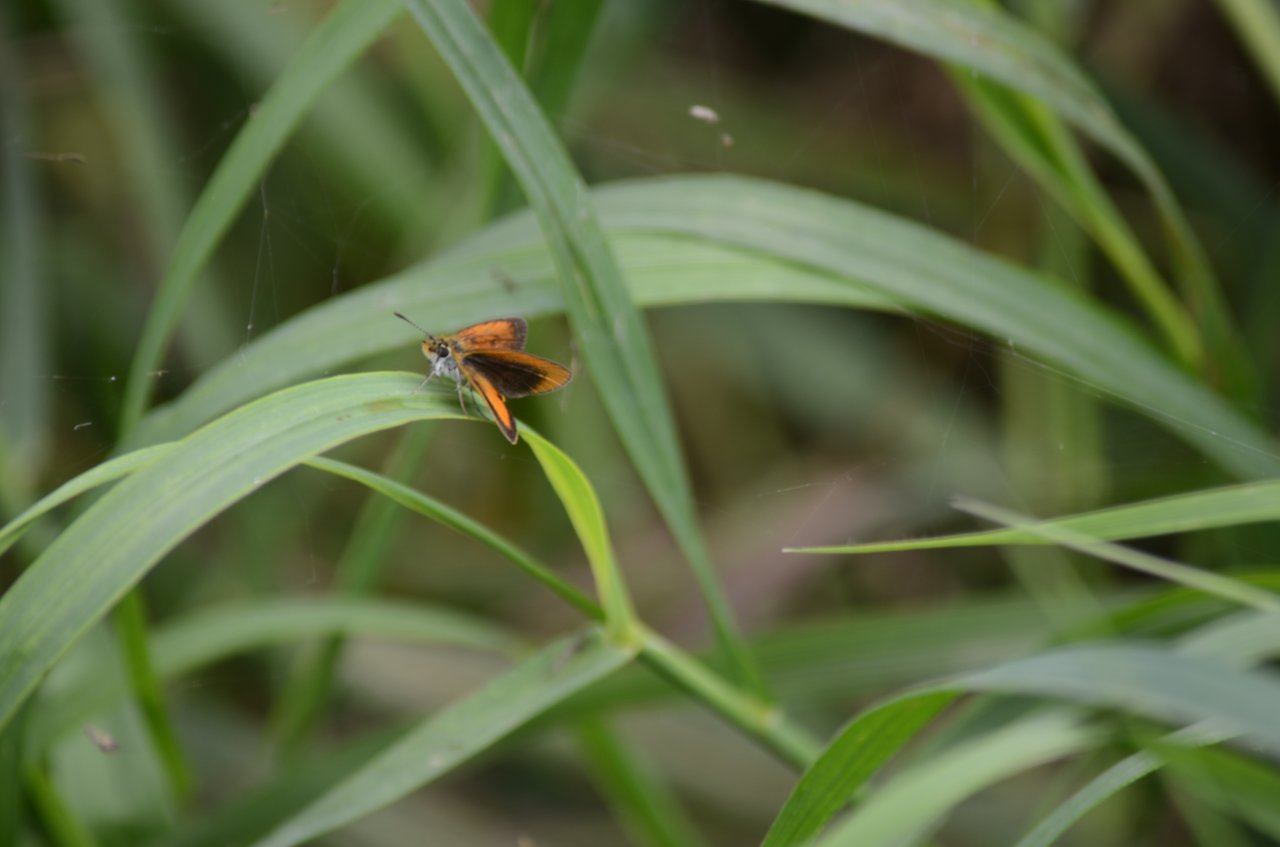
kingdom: Animalia
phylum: Arthropoda
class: Insecta
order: Lepidoptera
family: Hesperiidae
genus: Ancyloxypha
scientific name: Ancyloxypha numitor
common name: Least Skipper
